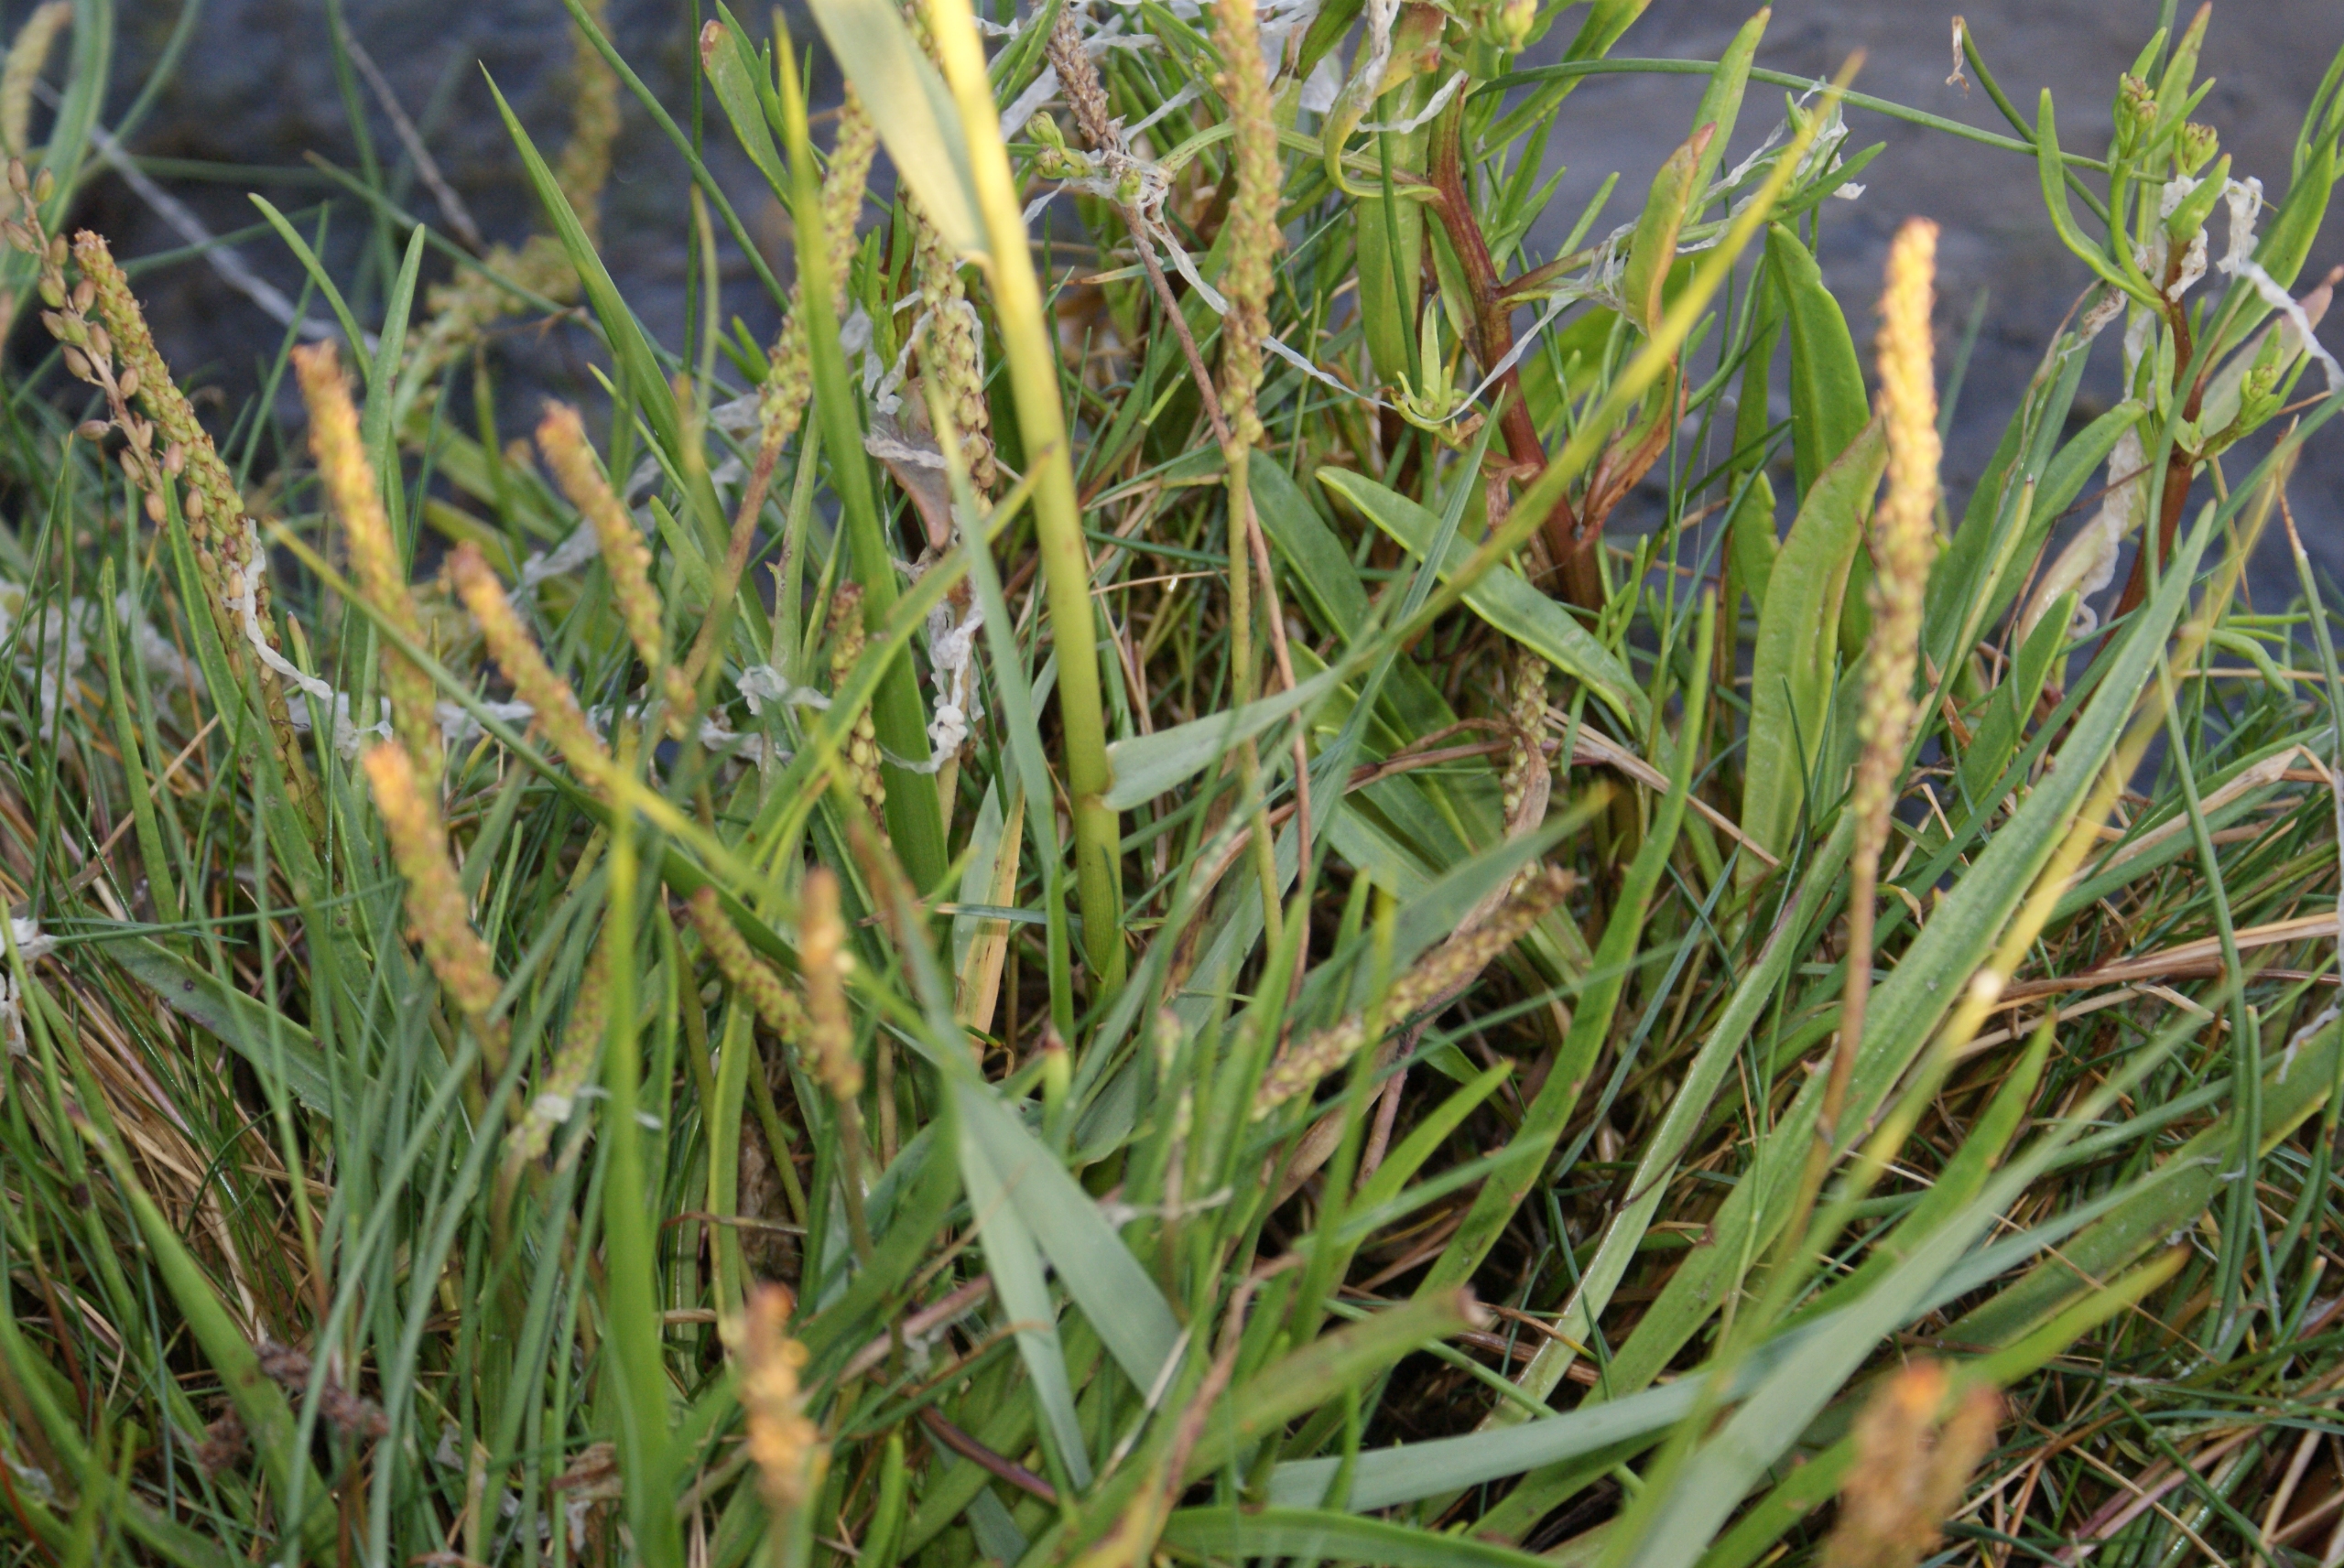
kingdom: Plantae
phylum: Tracheophyta
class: Liliopsida
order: Poales
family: Poaceae
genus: Sporobolus
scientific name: Sporobolus townsendii
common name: Hybrid-vadegræs
